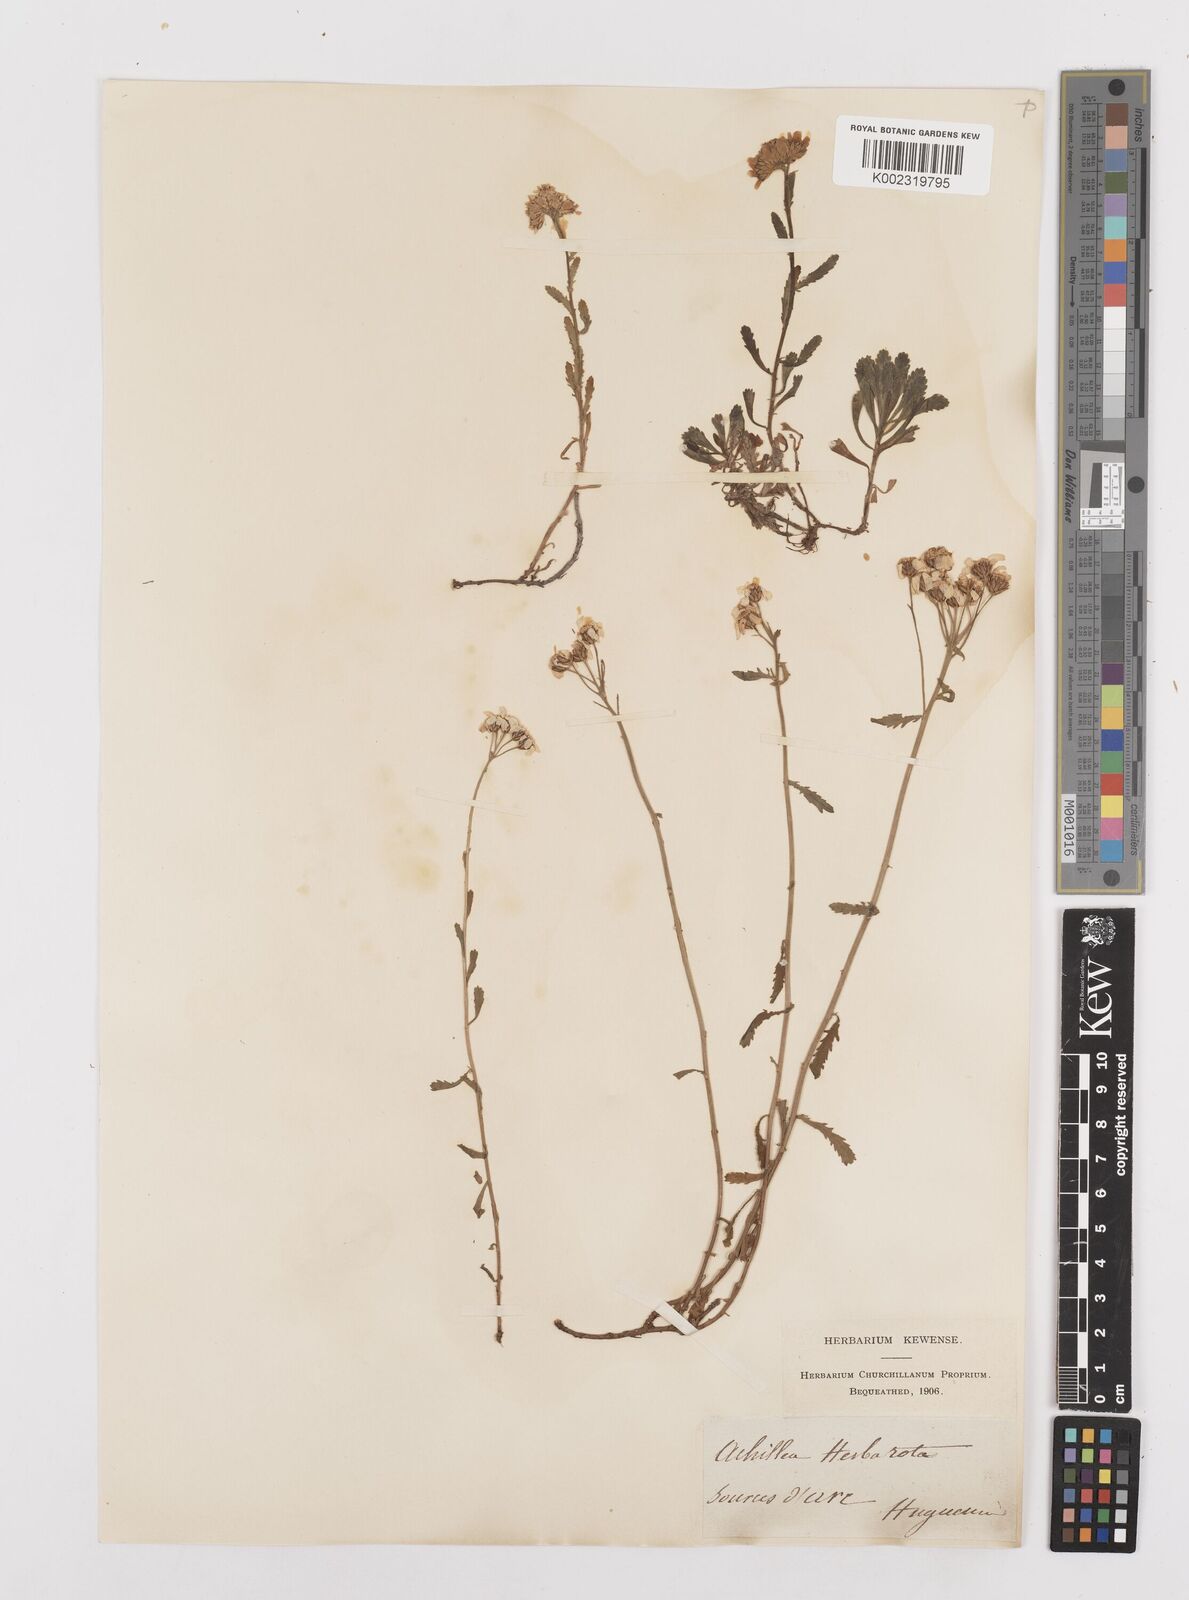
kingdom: Plantae
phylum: Tracheophyta
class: Magnoliopsida
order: Asterales
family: Asteraceae
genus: Achillea
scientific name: Achillea erba-rotta
